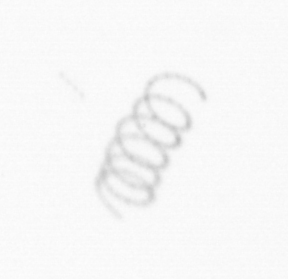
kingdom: Chromista
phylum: Ochrophyta
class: Bacillariophyceae
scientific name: Bacillariophyceae
